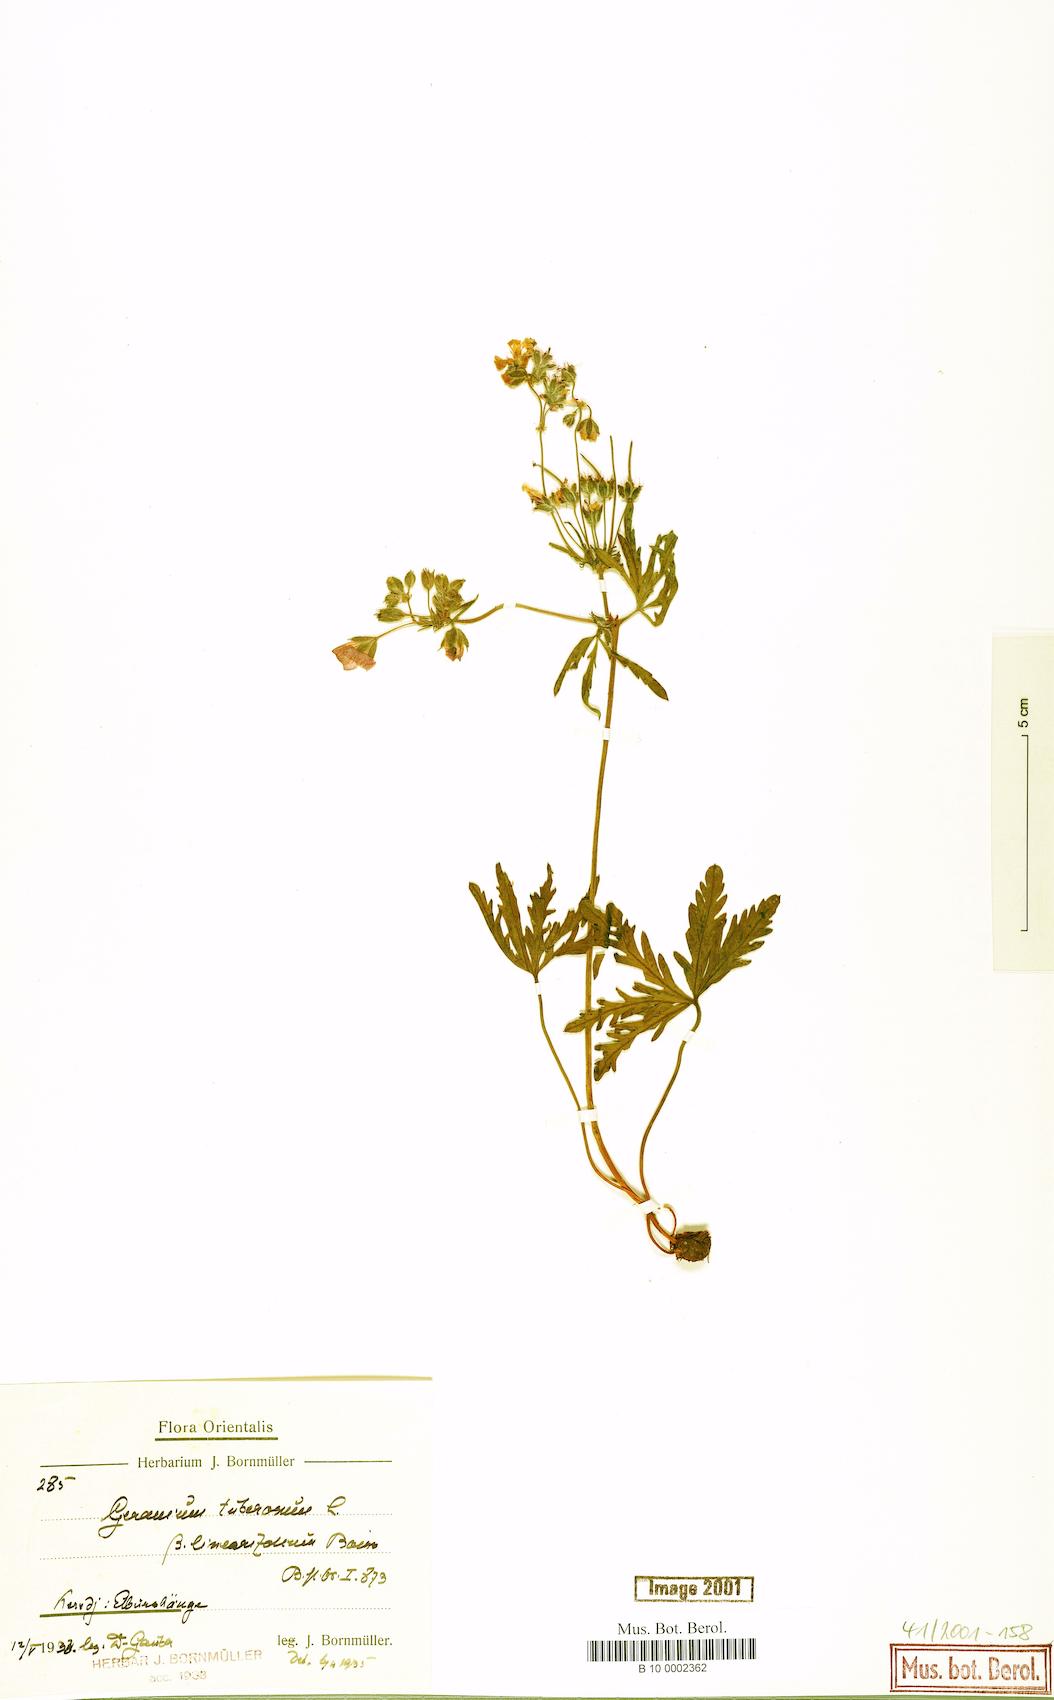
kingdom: Plantae
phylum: Tracheophyta
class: Magnoliopsida
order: Geraniales
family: Geraniaceae
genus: Geranium
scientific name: Geranium tuberosum
